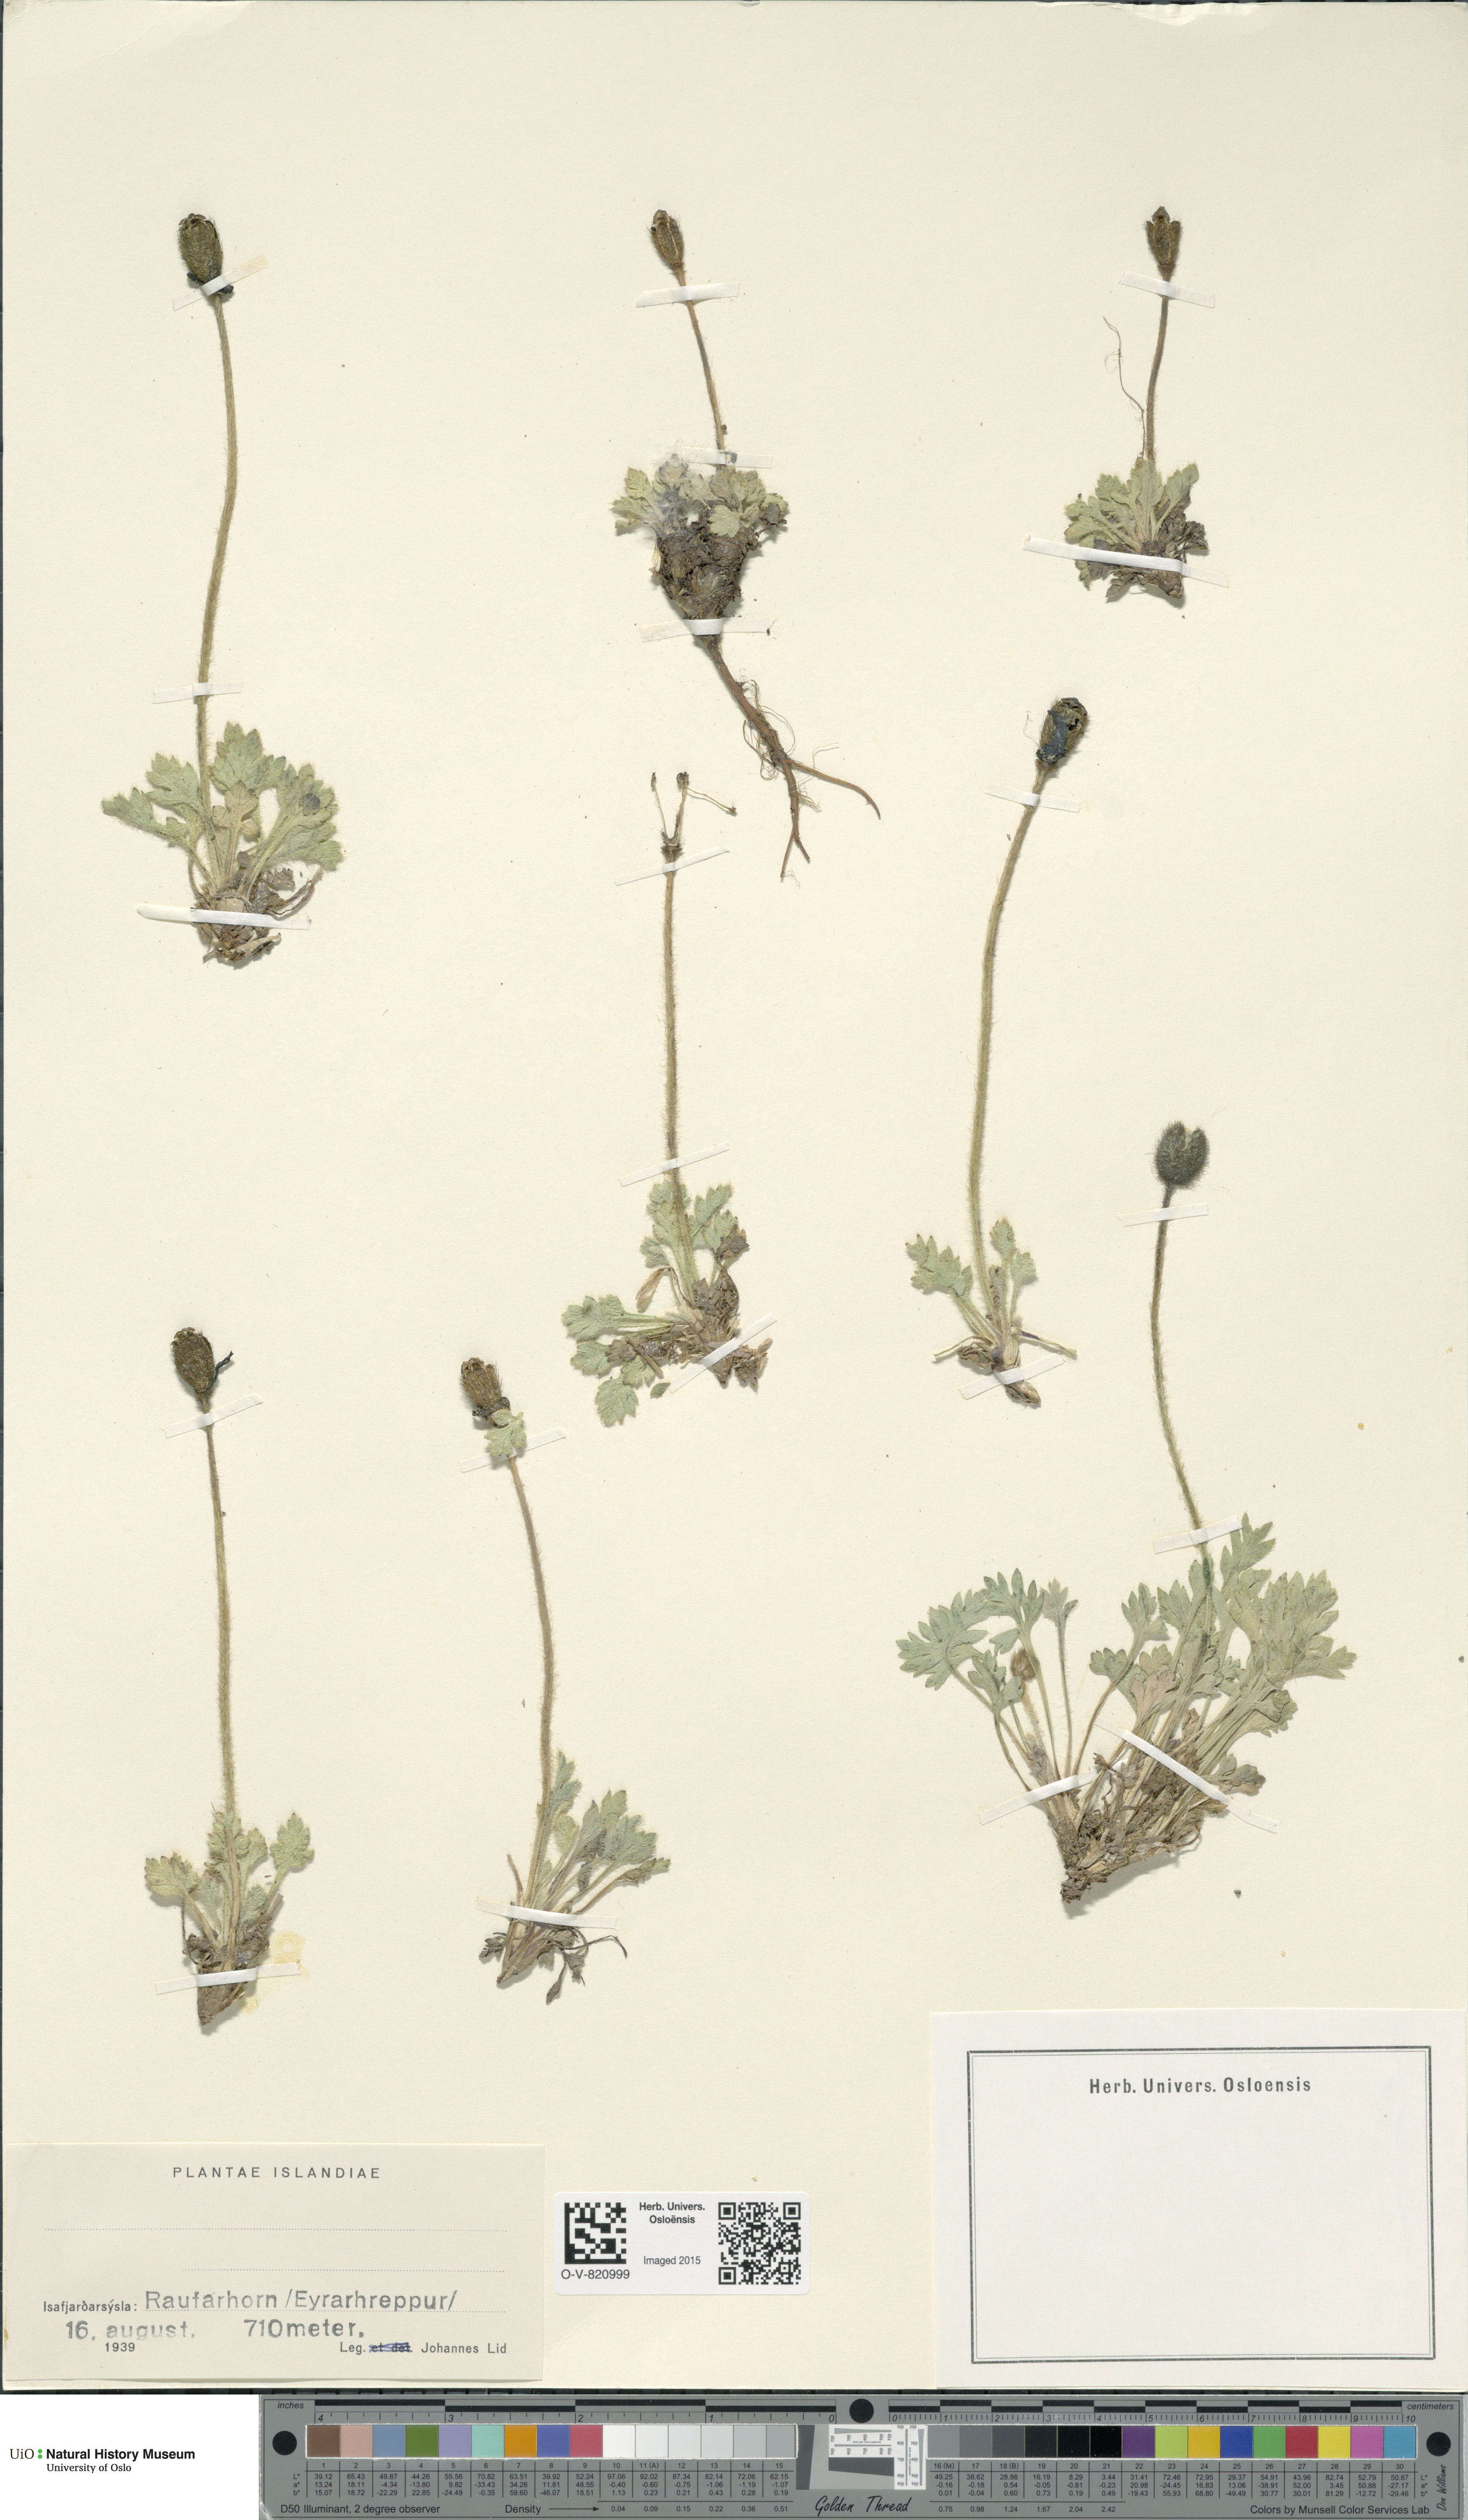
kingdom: Plantae
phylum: Tracheophyta
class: Magnoliopsida
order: Ranunculales
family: Papaveraceae
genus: Papaver
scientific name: Papaver radicatum
